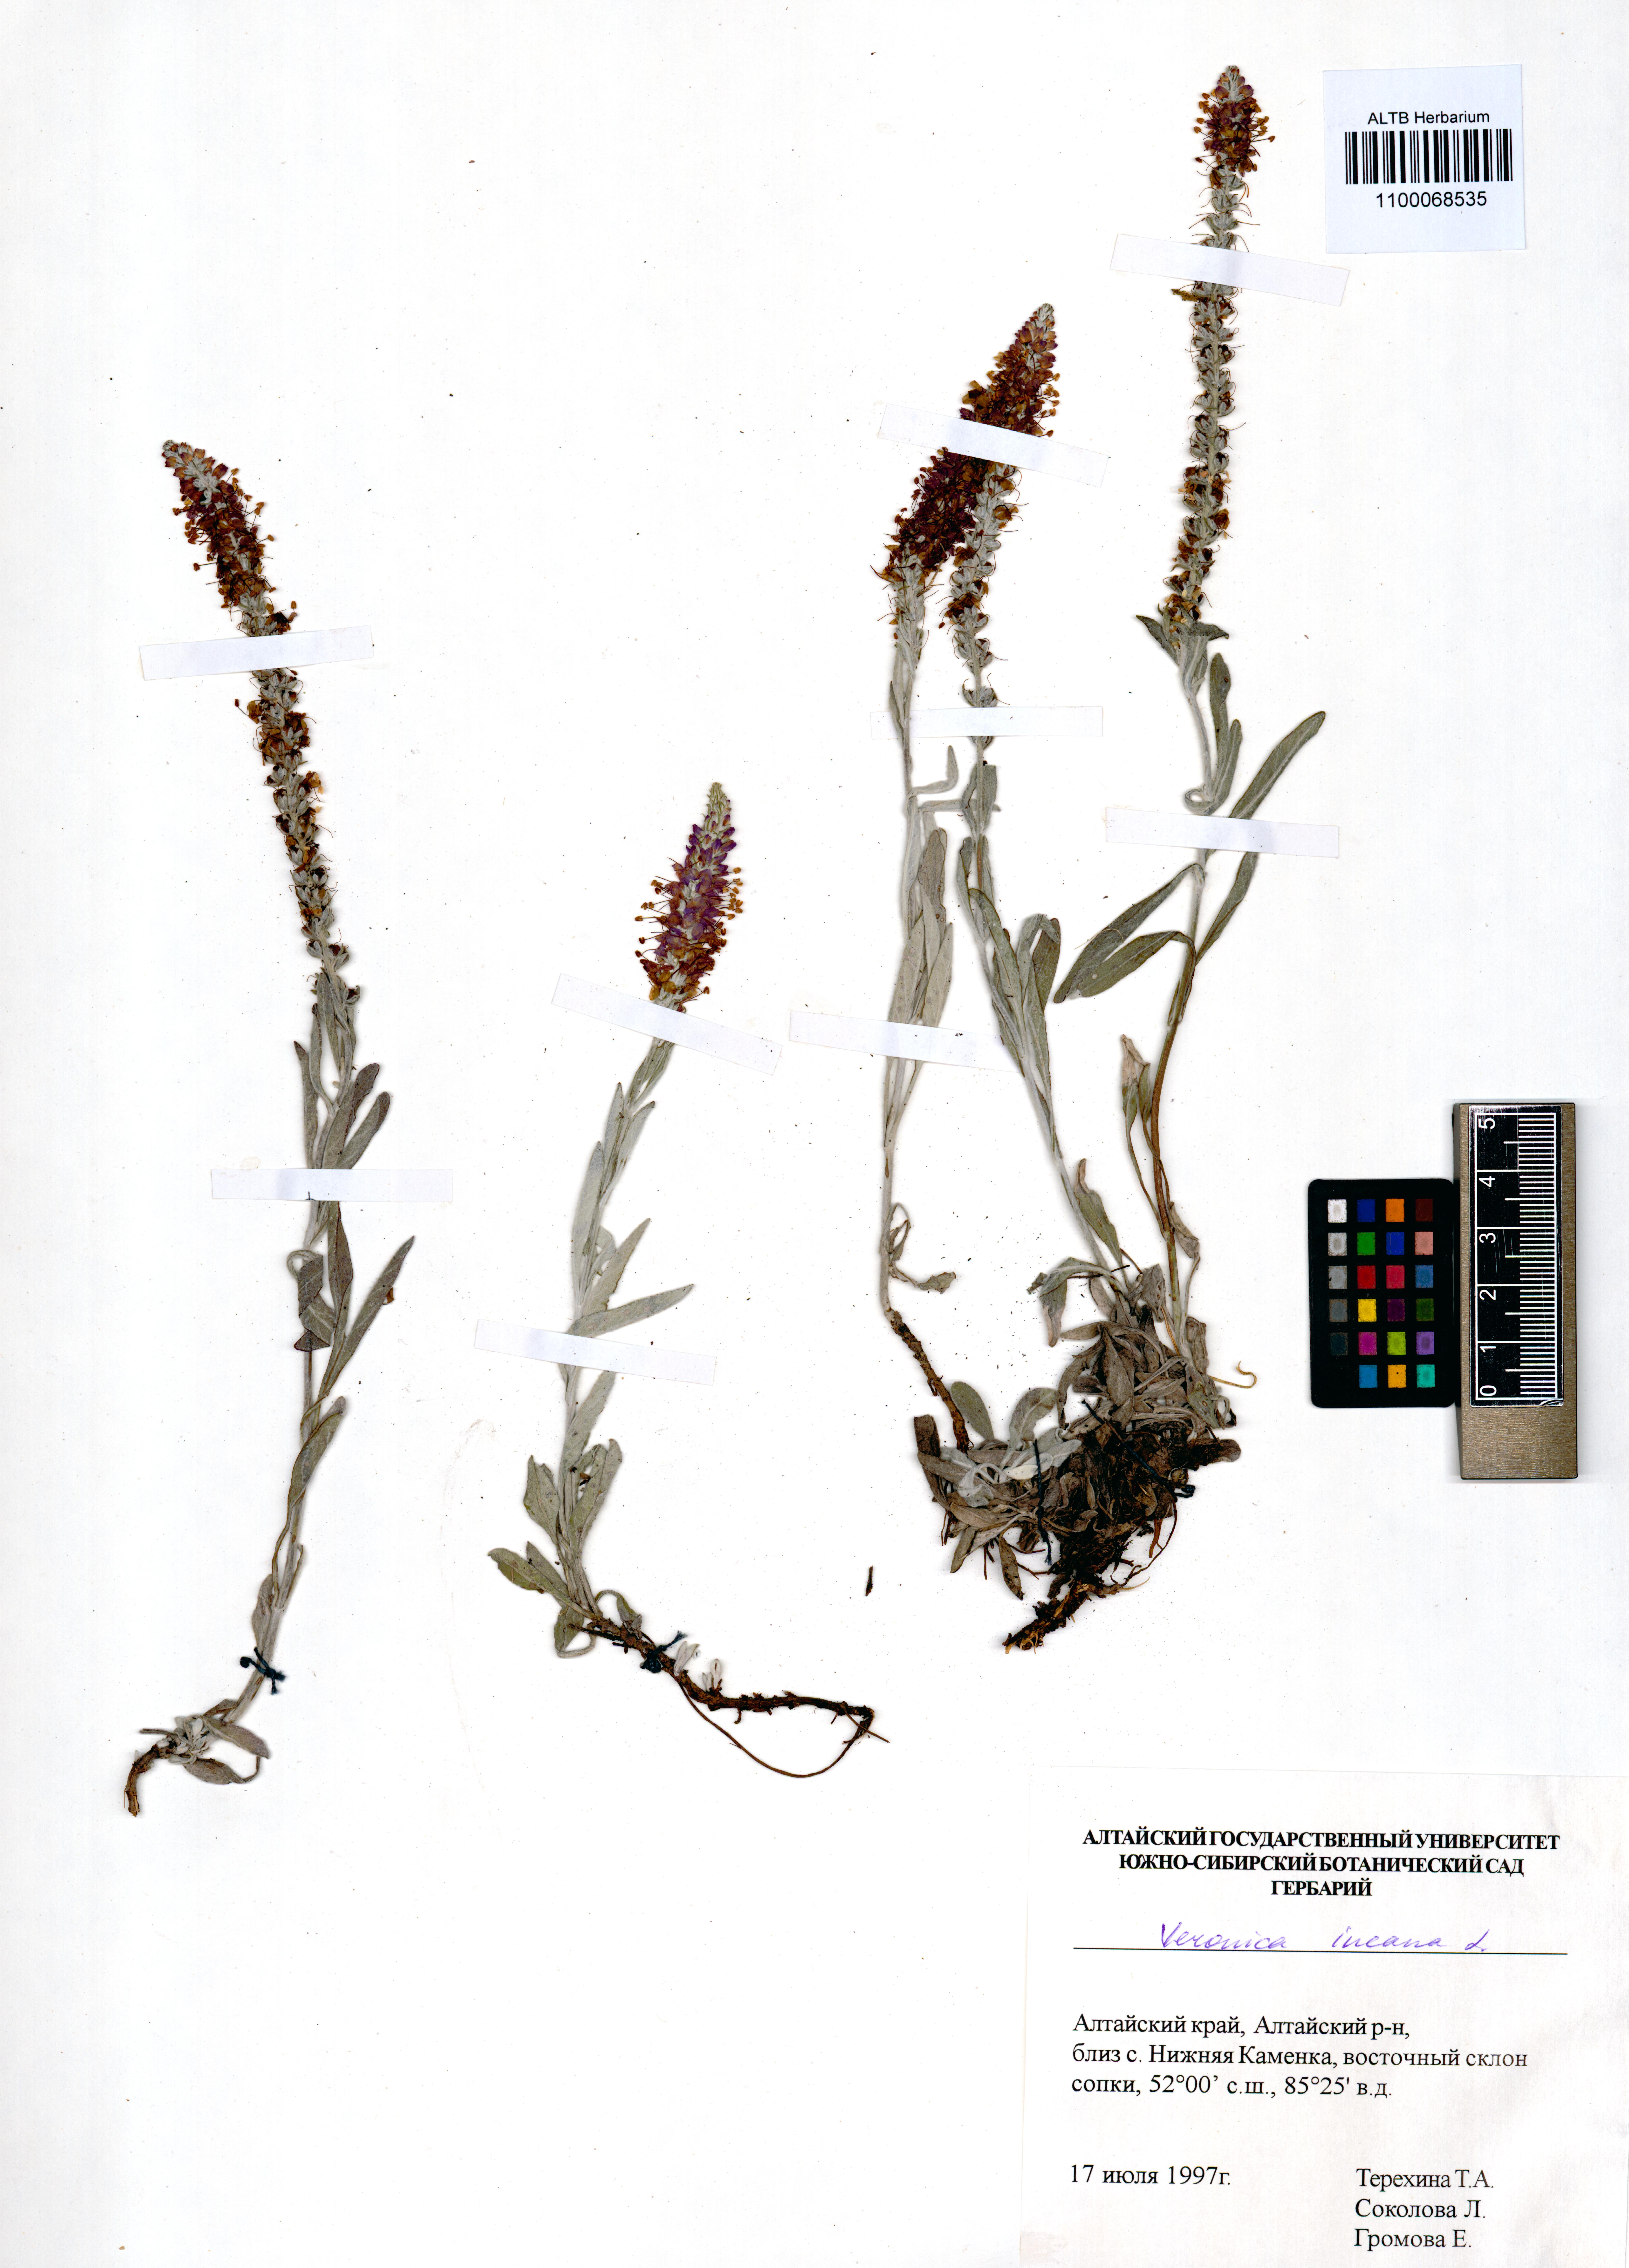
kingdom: Plantae
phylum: Tracheophyta
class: Magnoliopsida
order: Lamiales
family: Plantaginaceae
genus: Veronica
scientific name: Veronica incana
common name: Silver speedwell
